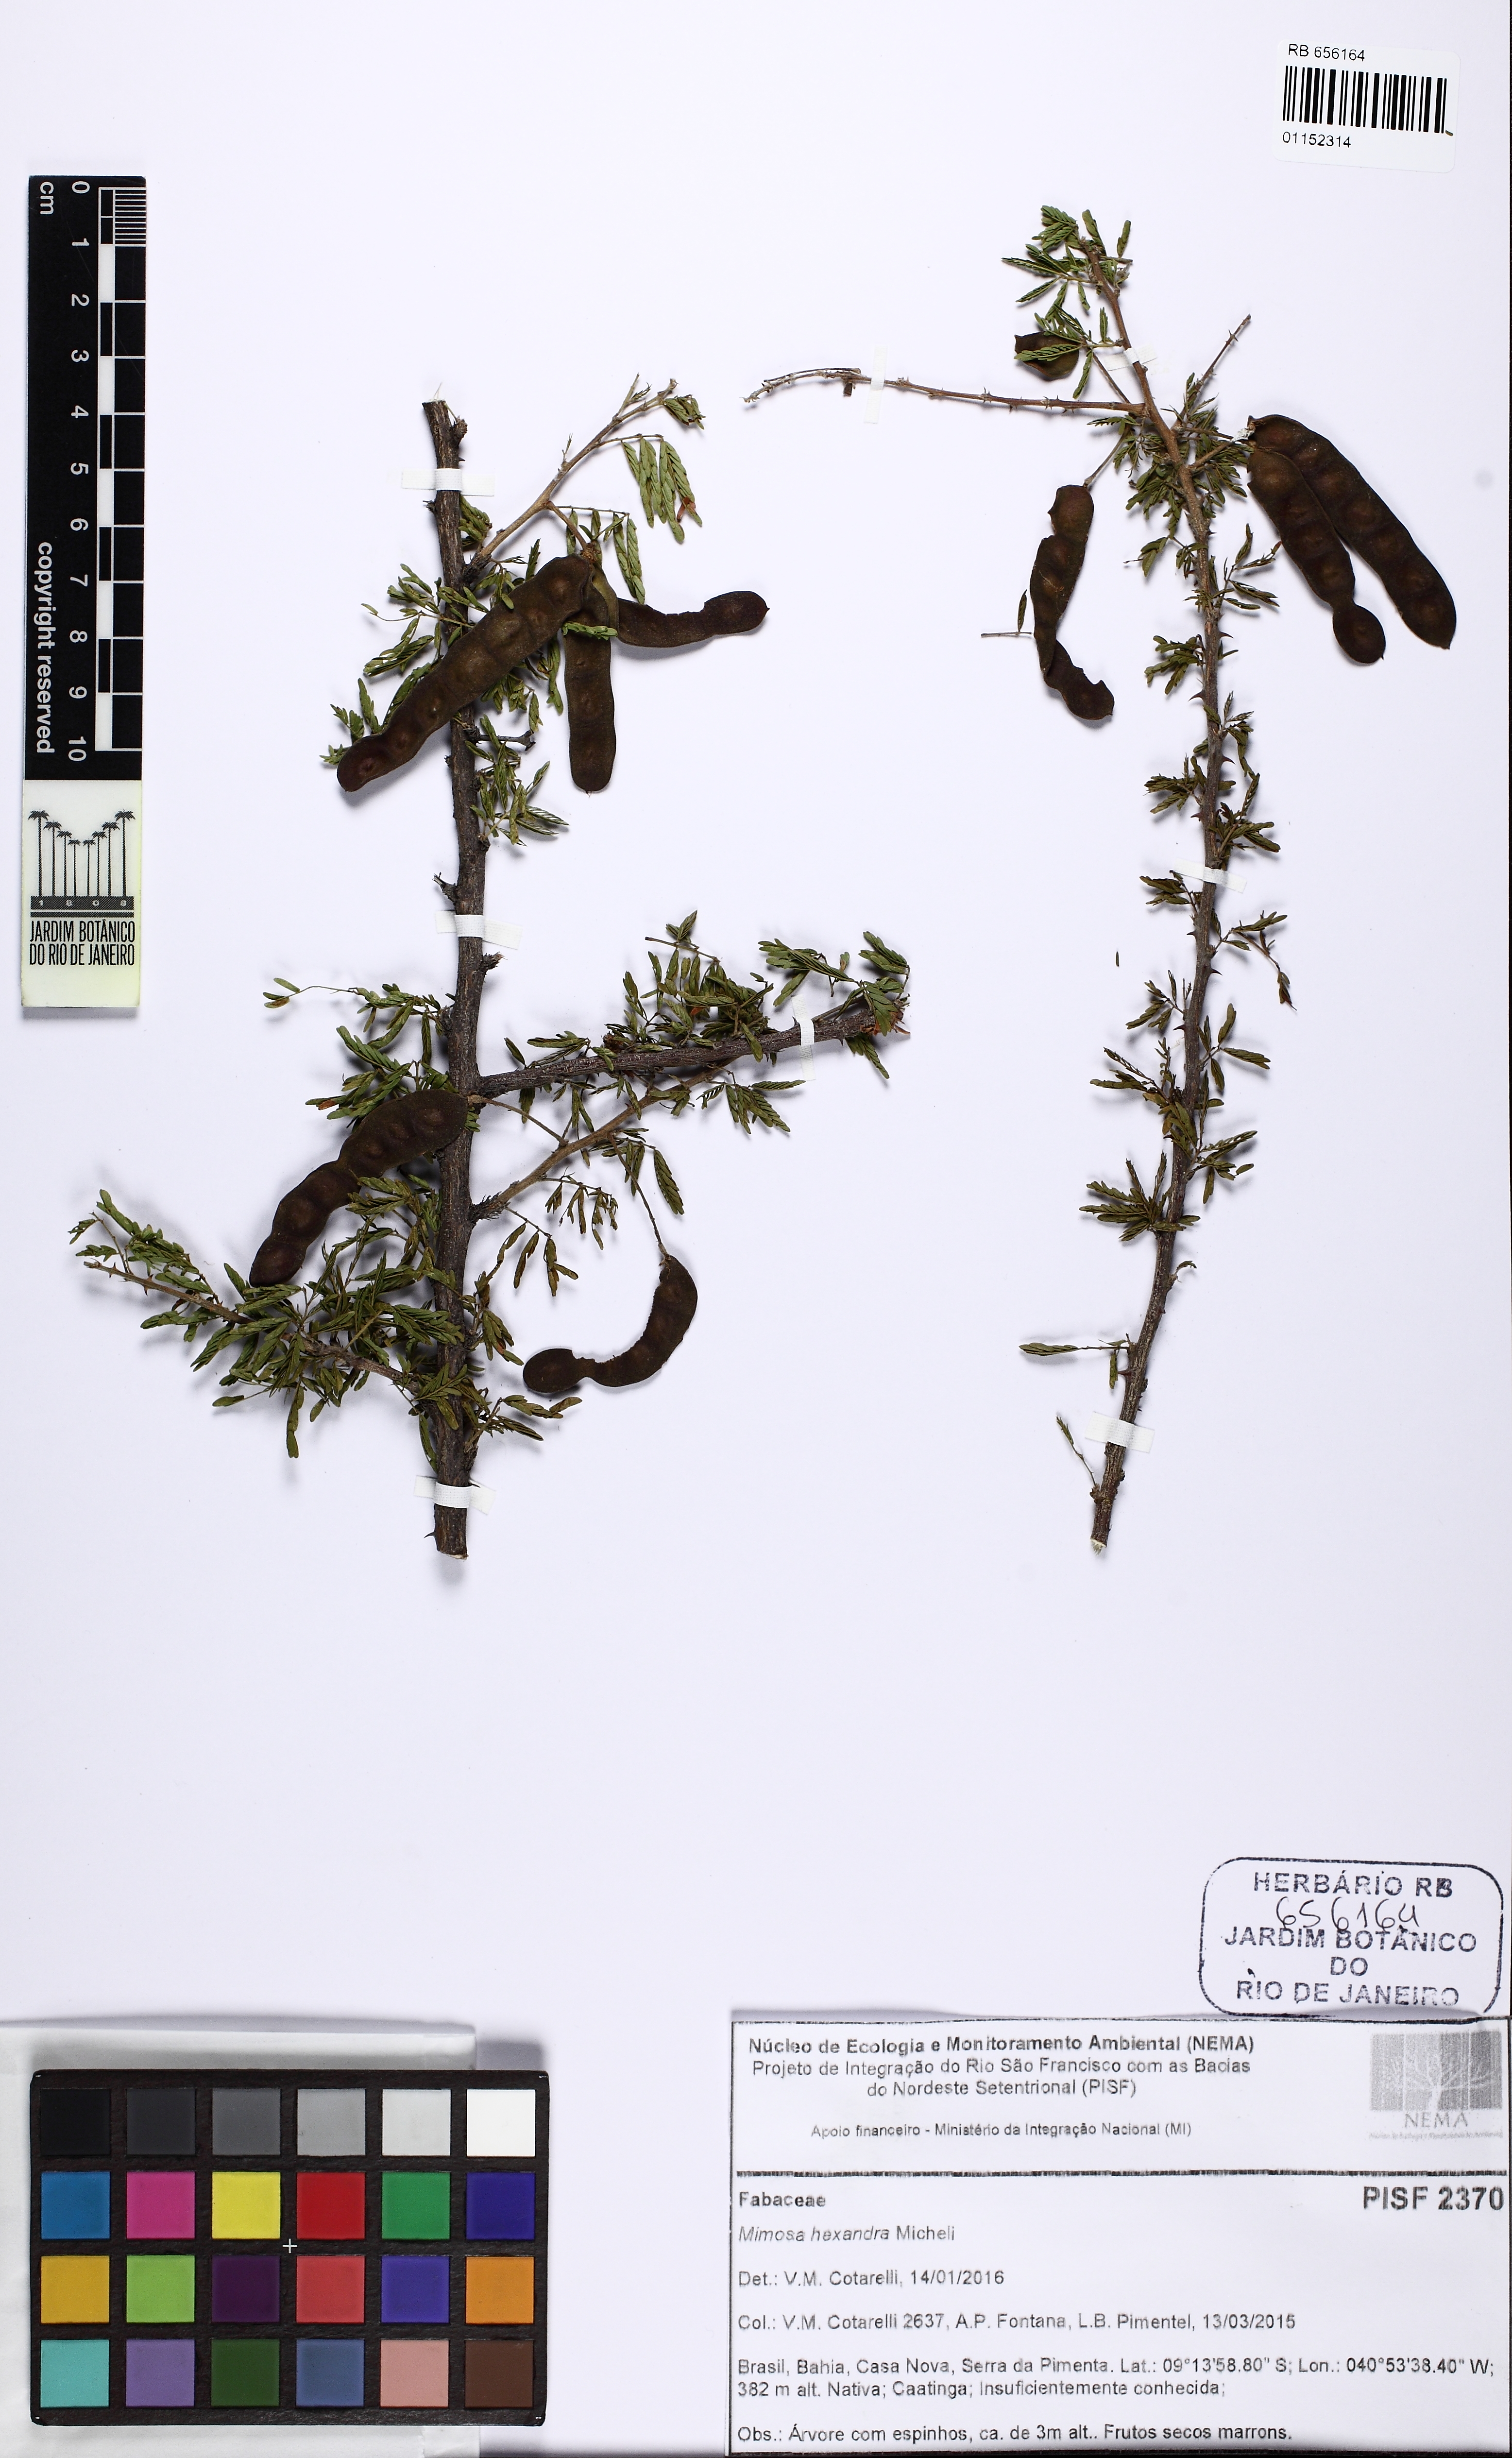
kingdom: Plantae
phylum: Tracheophyta
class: Magnoliopsida
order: Fabales
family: Fabaceae
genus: Mimosa
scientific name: Mimosa hexandra
